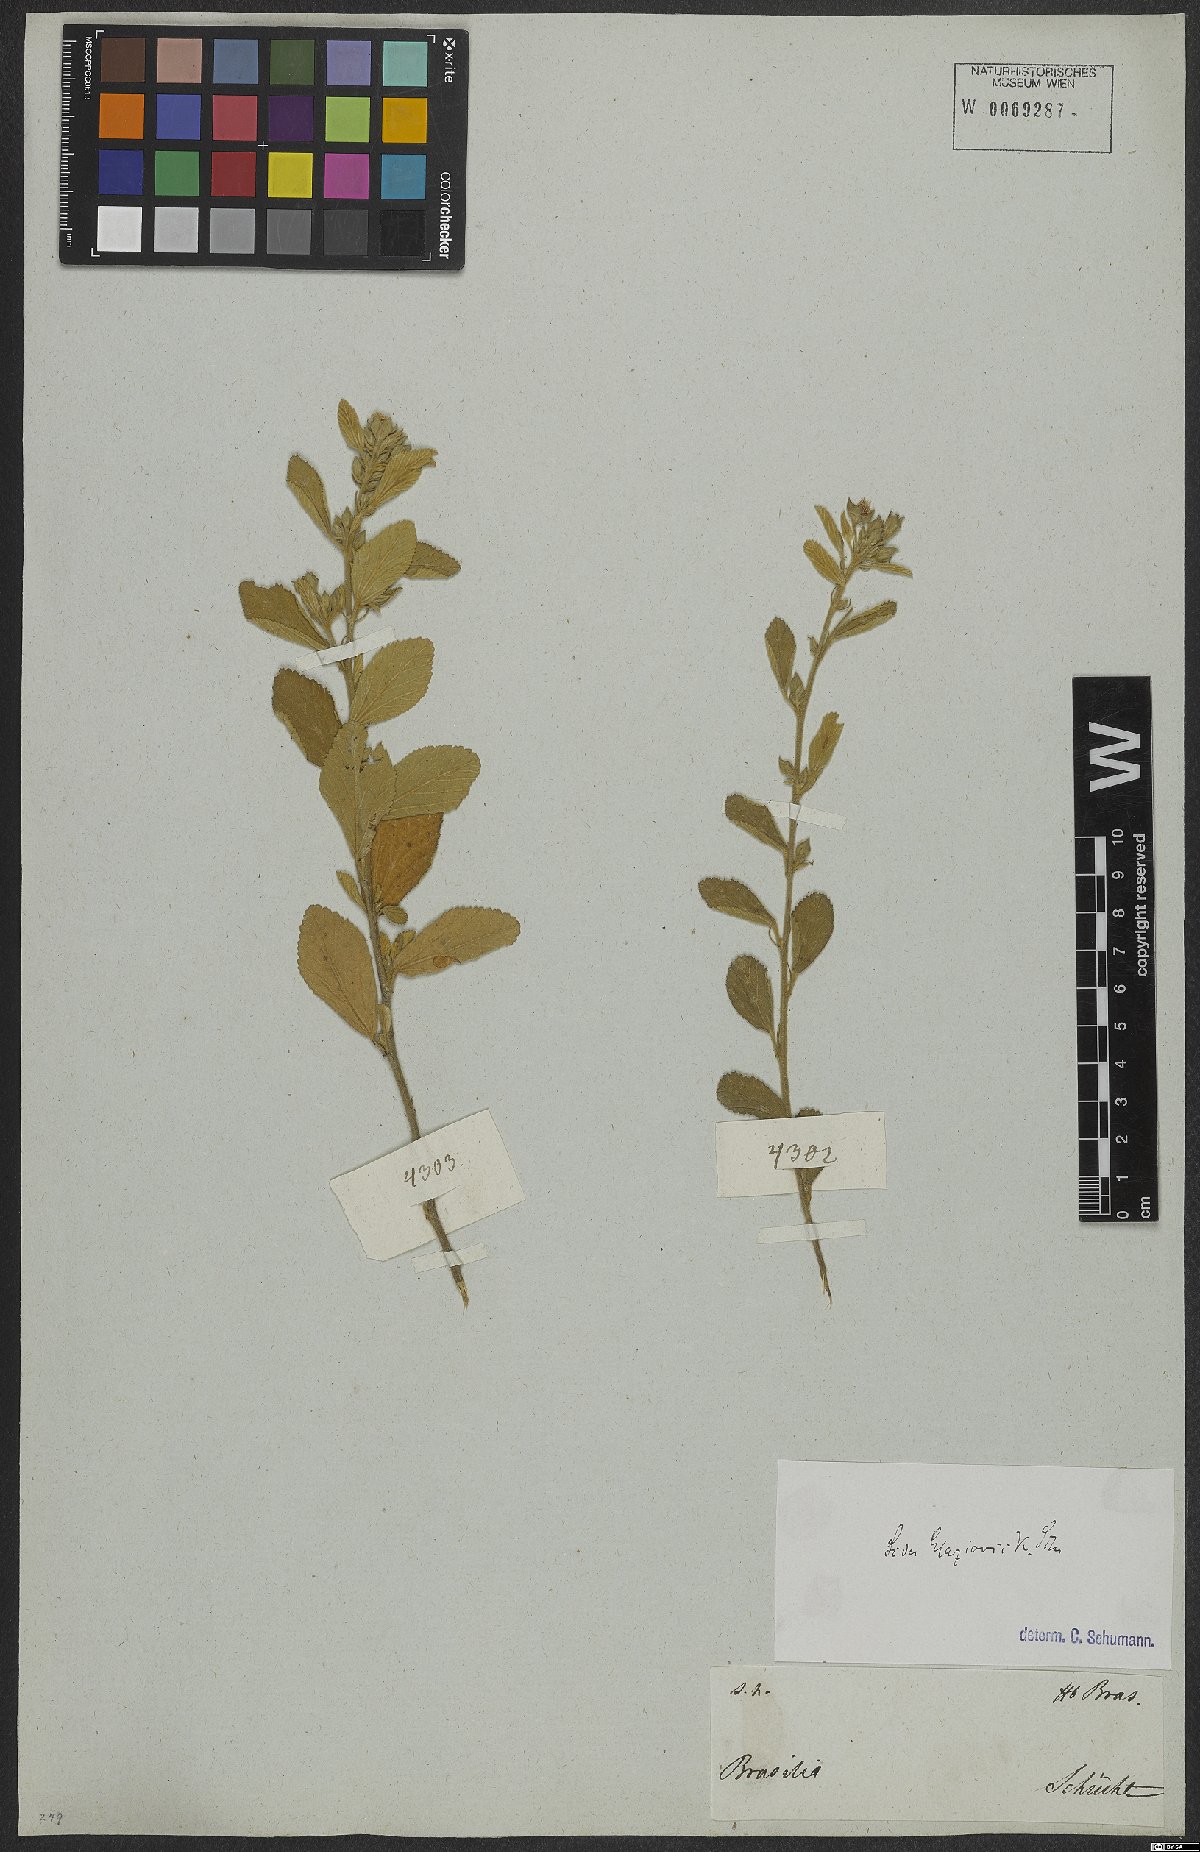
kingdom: Plantae
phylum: Tracheophyta
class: Magnoliopsida
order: Malvales
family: Malvaceae
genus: Sida
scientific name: Sida glaziovii
